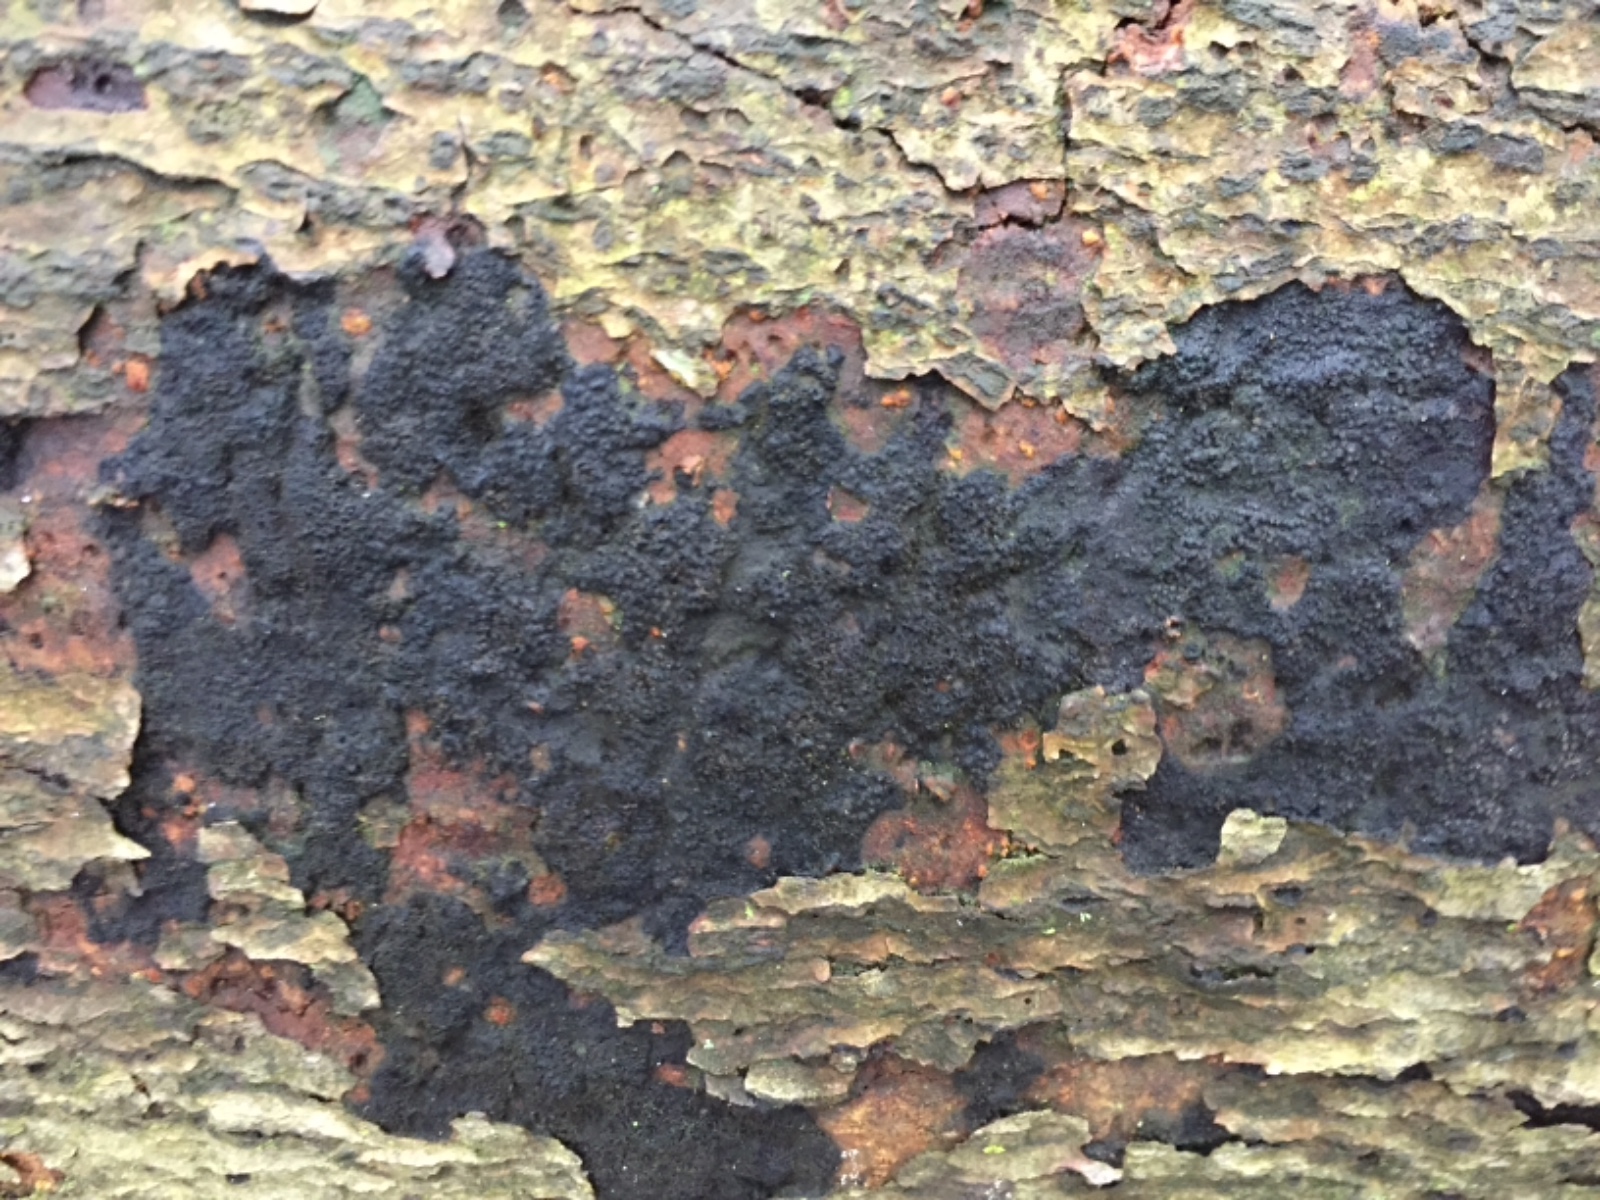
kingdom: Fungi
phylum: Ascomycota
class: Sordariomycetes
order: Xylariales
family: Diatrypaceae
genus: Eutypa
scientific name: Eutypa spinosa
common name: grov kulskorpe
